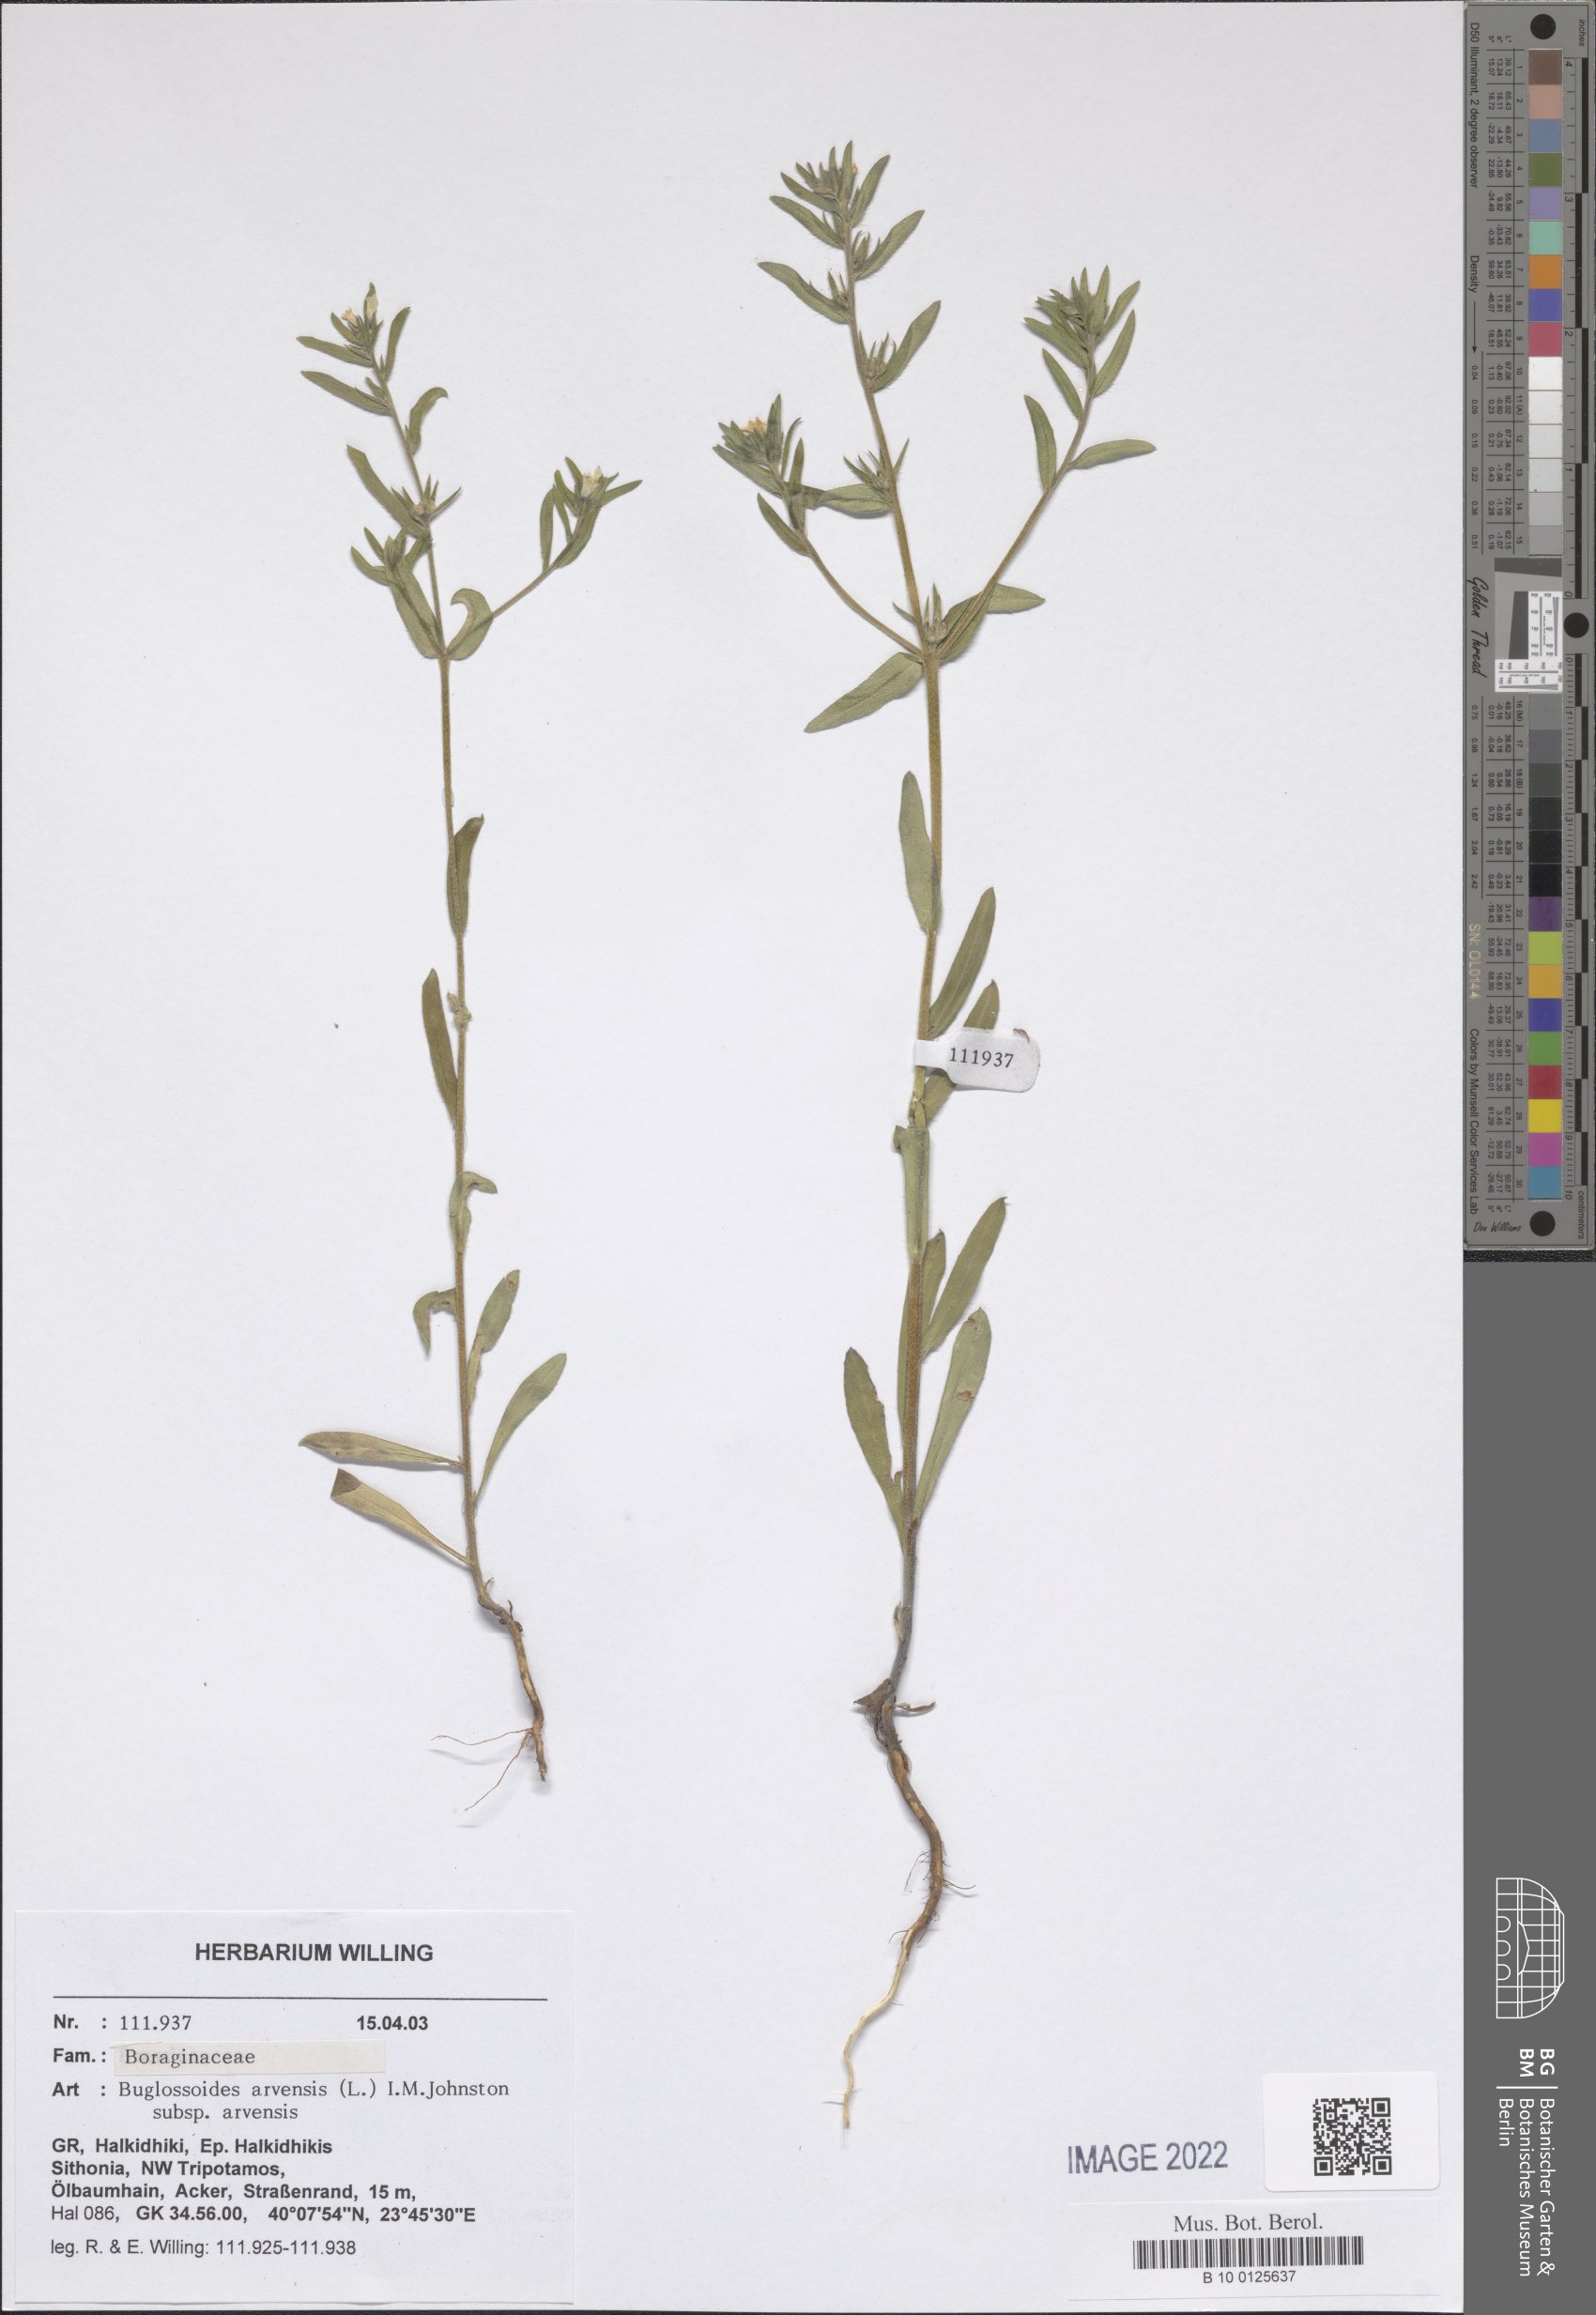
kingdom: Plantae
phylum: Tracheophyta
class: Magnoliopsida
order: Boraginales
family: Boraginaceae
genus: Buglossoides
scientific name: Buglossoides arvensis
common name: Corn gromwell
